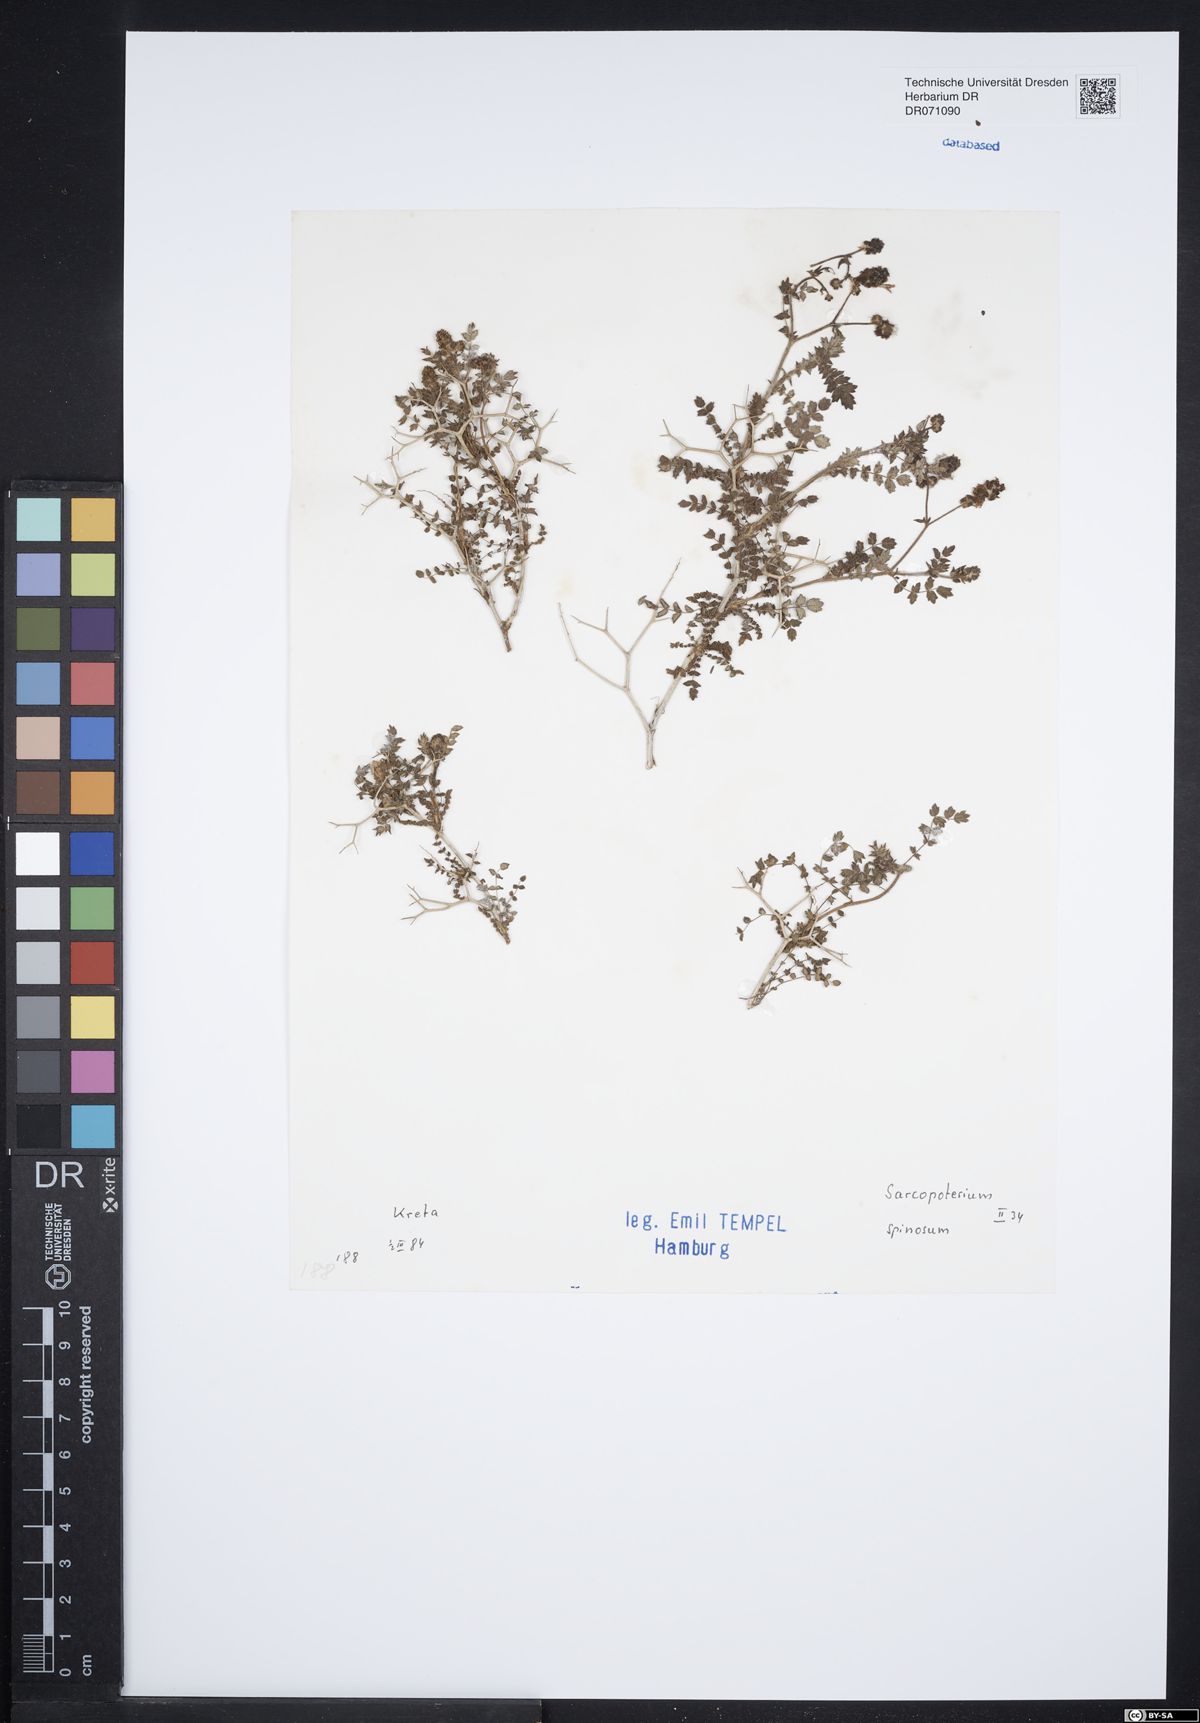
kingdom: Plantae
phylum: Tracheophyta
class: Magnoliopsida
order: Rosales
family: Rosaceae
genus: Sarcopoterium
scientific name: Sarcopoterium spinosum
